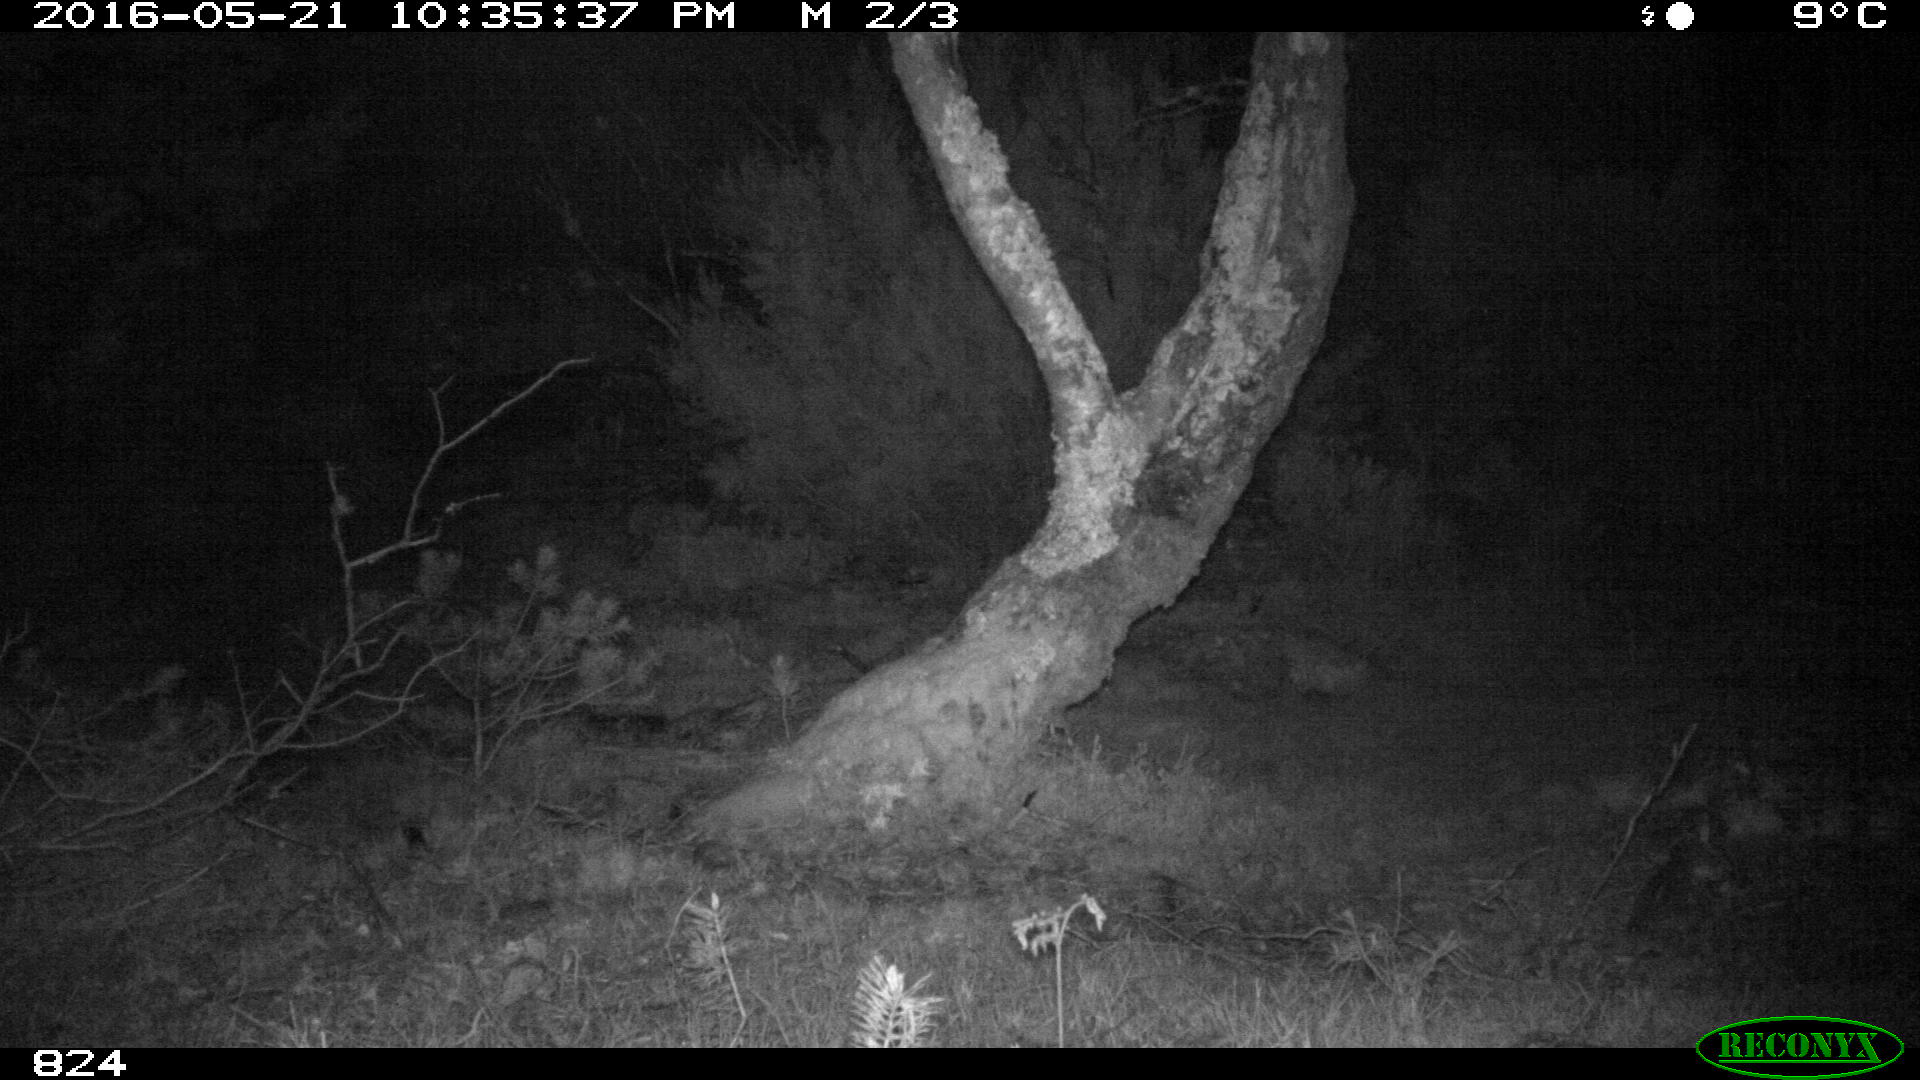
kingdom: Animalia
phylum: Chordata
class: Mammalia
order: Carnivora
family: Canidae
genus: Canis
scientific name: Canis lupus
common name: Gray wolf
